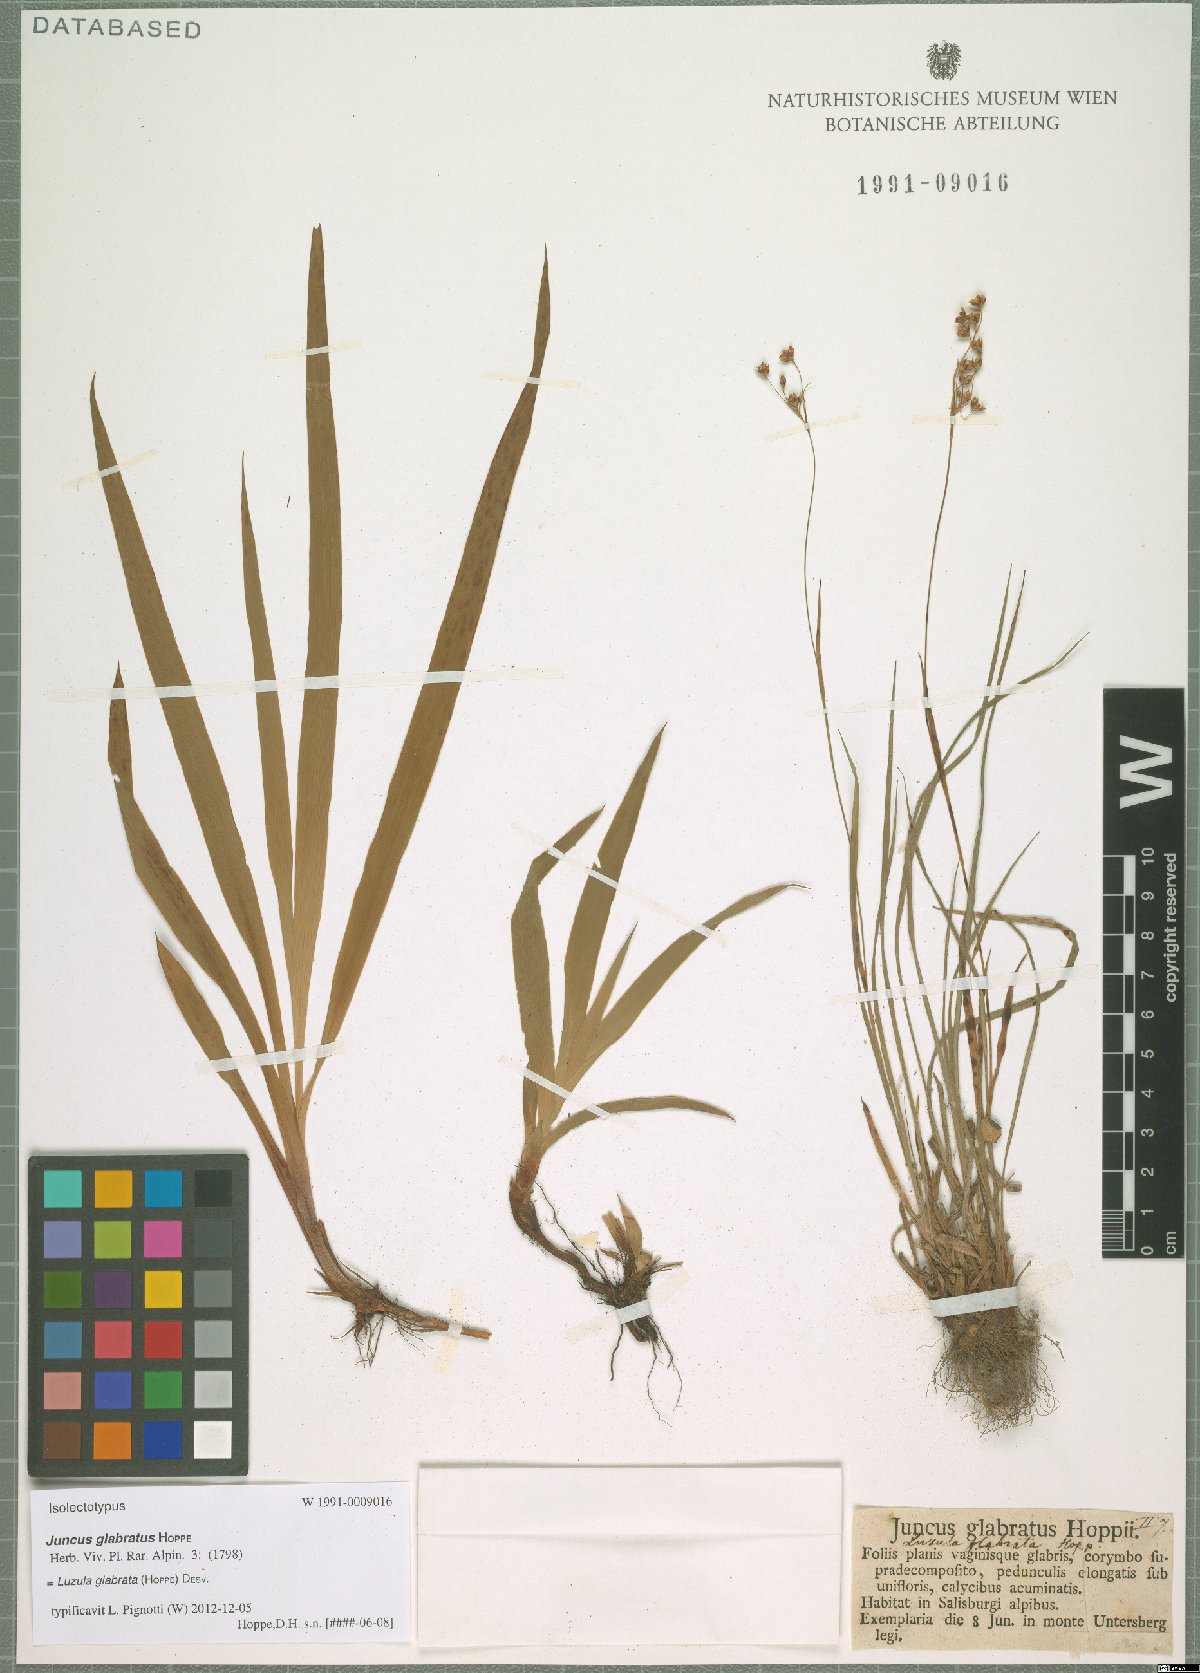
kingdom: Plantae
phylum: Tracheophyta
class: Liliopsida
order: Poales
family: Juncaceae
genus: Luzula
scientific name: Luzula glabrata
